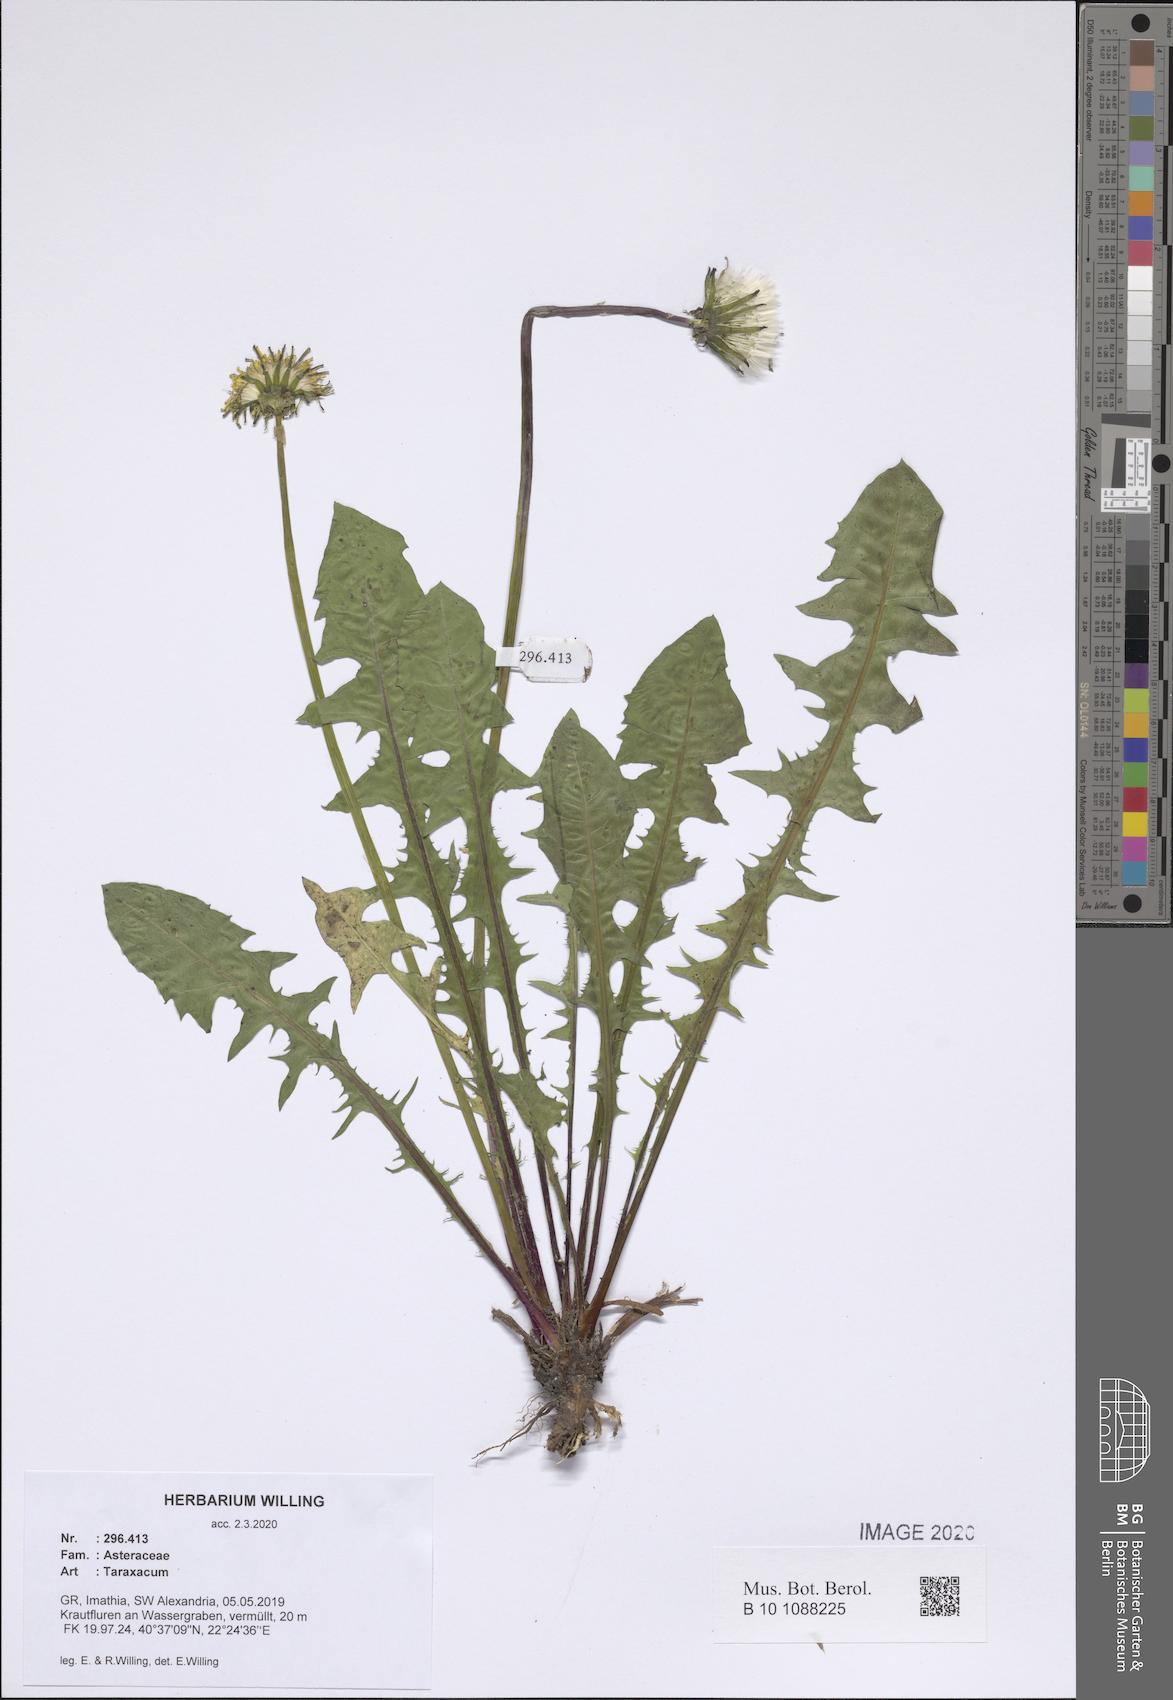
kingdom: Plantae
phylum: Tracheophyta
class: Magnoliopsida
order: Asterales
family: Asteraceae
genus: Taraxacum
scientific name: Taraxacum
